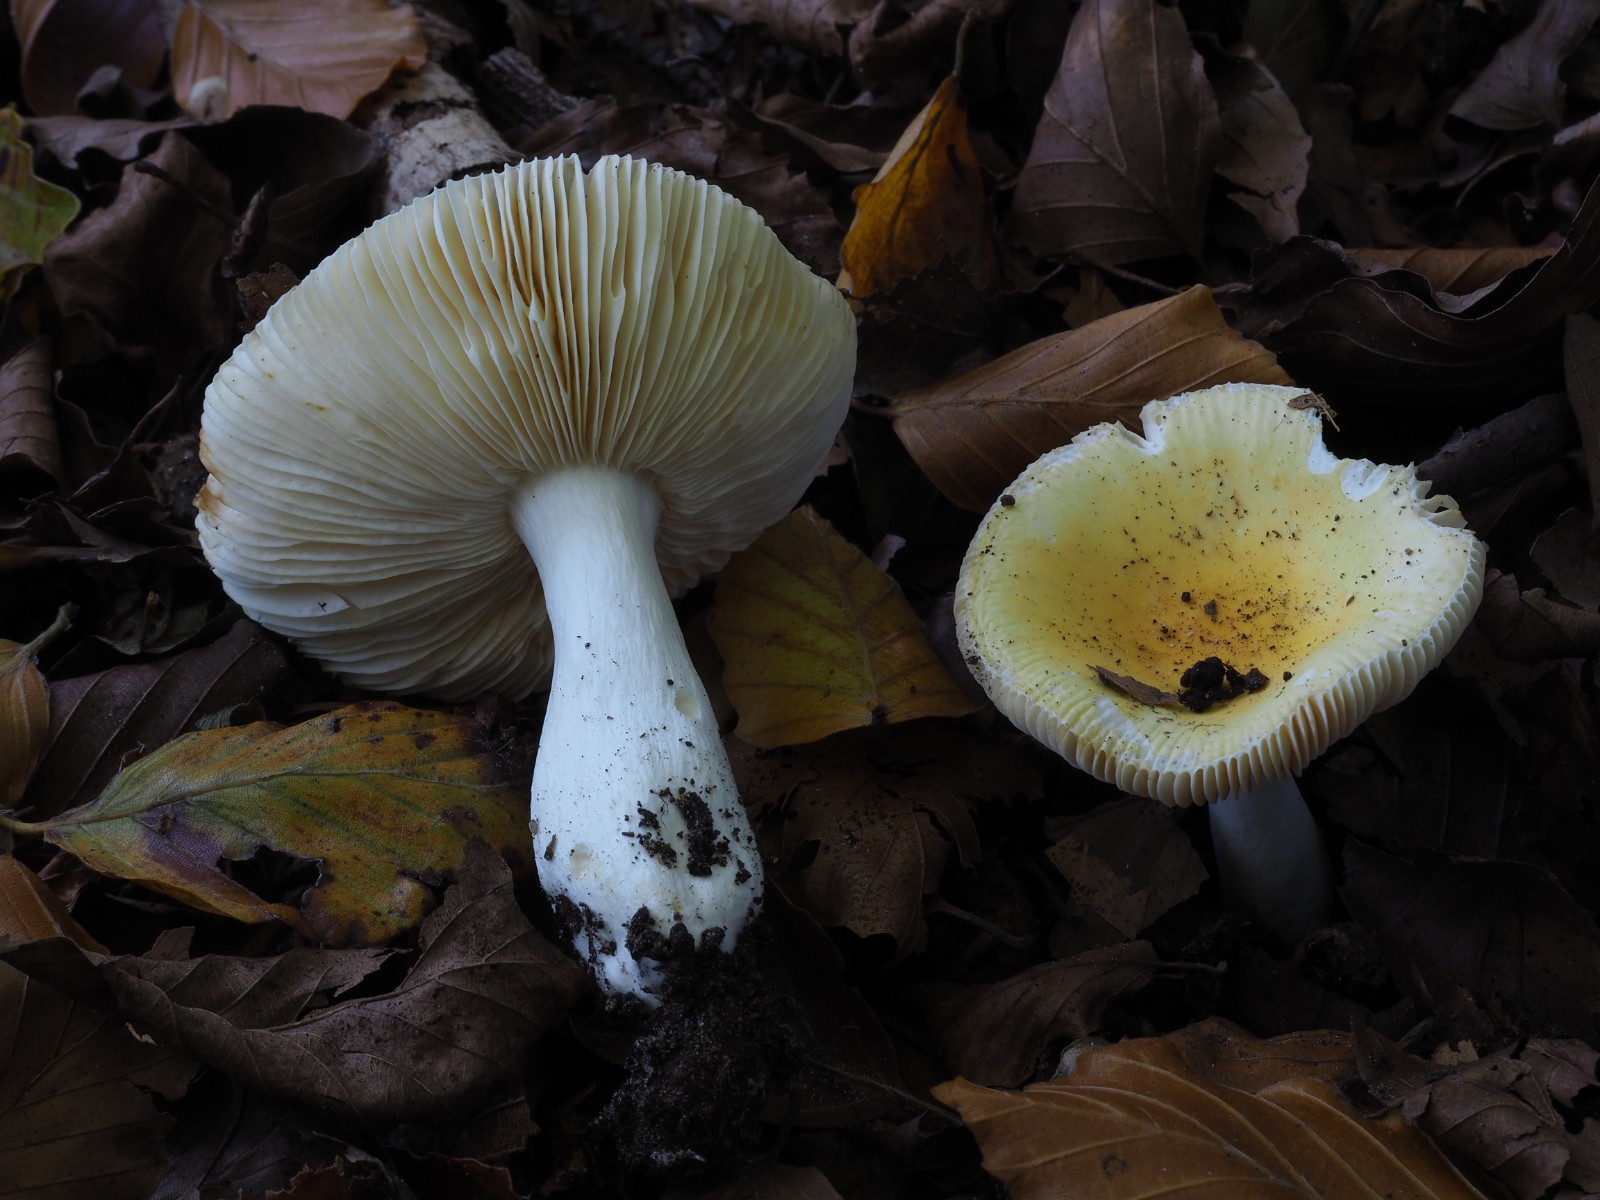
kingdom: Fungi
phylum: Basidiomycota
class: Agaricomycetes
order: Russulales
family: Russulaceae
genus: Russula
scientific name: Russula solaris
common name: sol-skørhat
